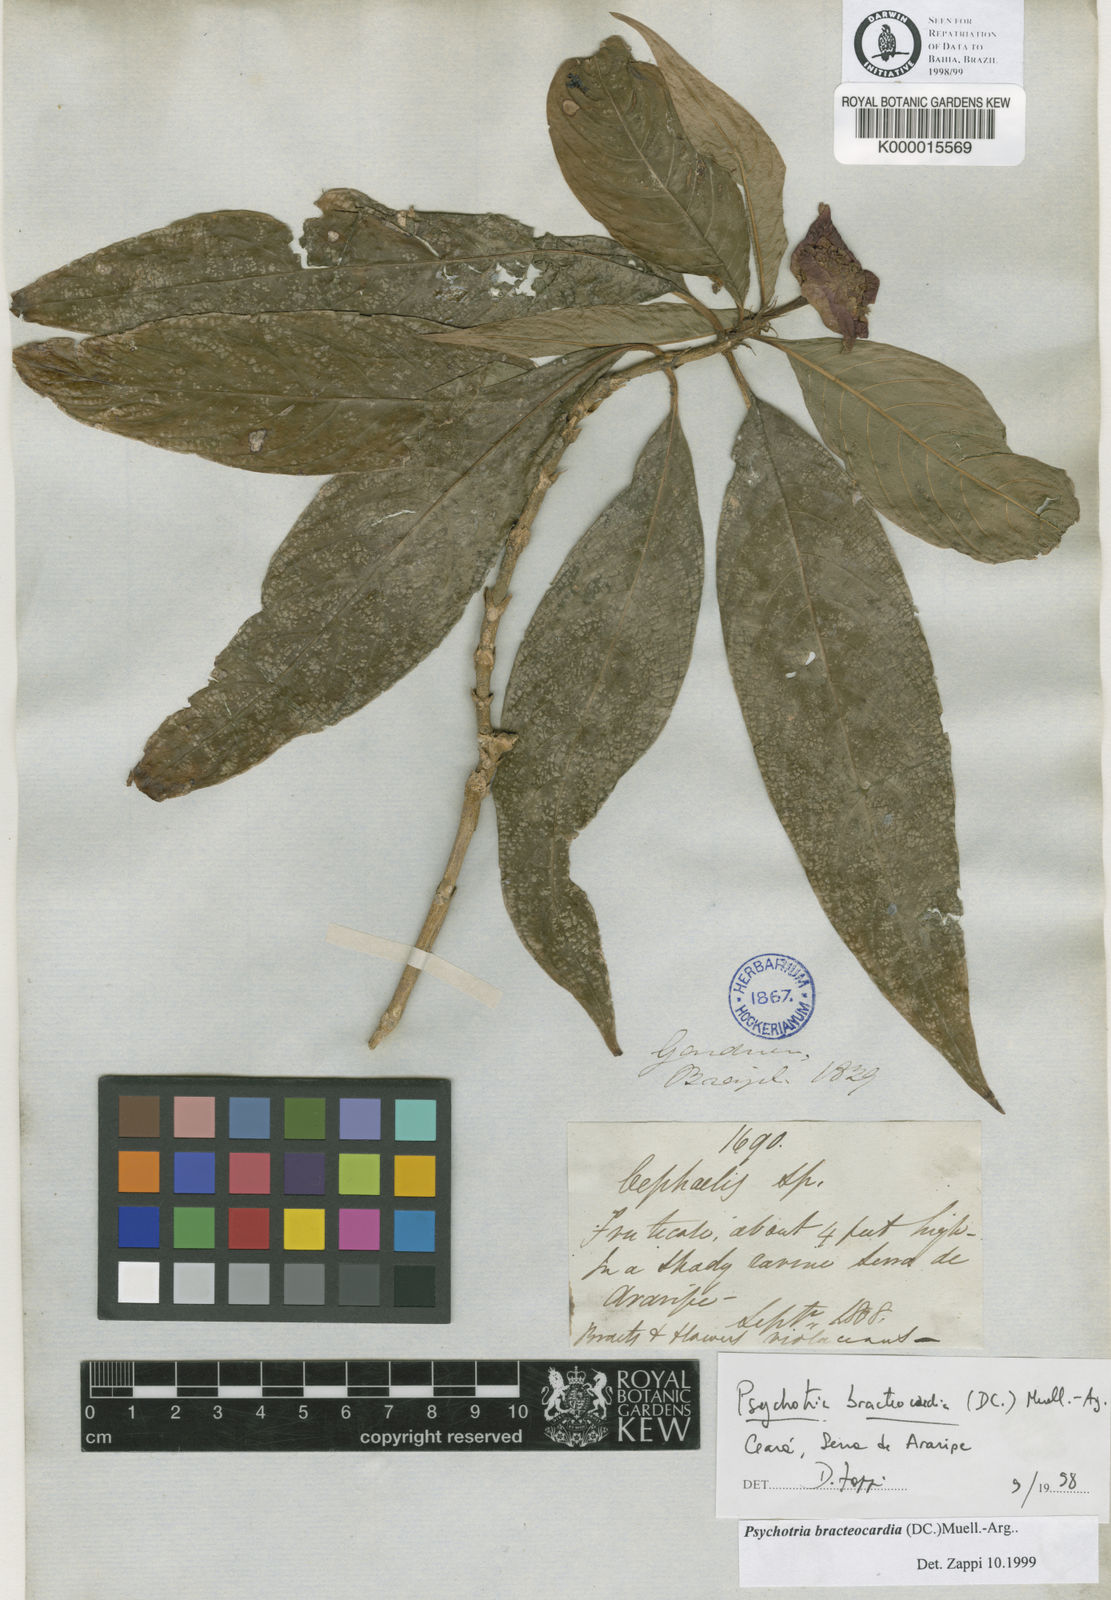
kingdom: Plantae
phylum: Tracheophyta
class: Magnoliopsida
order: Gentianales
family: Rubiaceae
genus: Psychotria
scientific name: Psychotria
